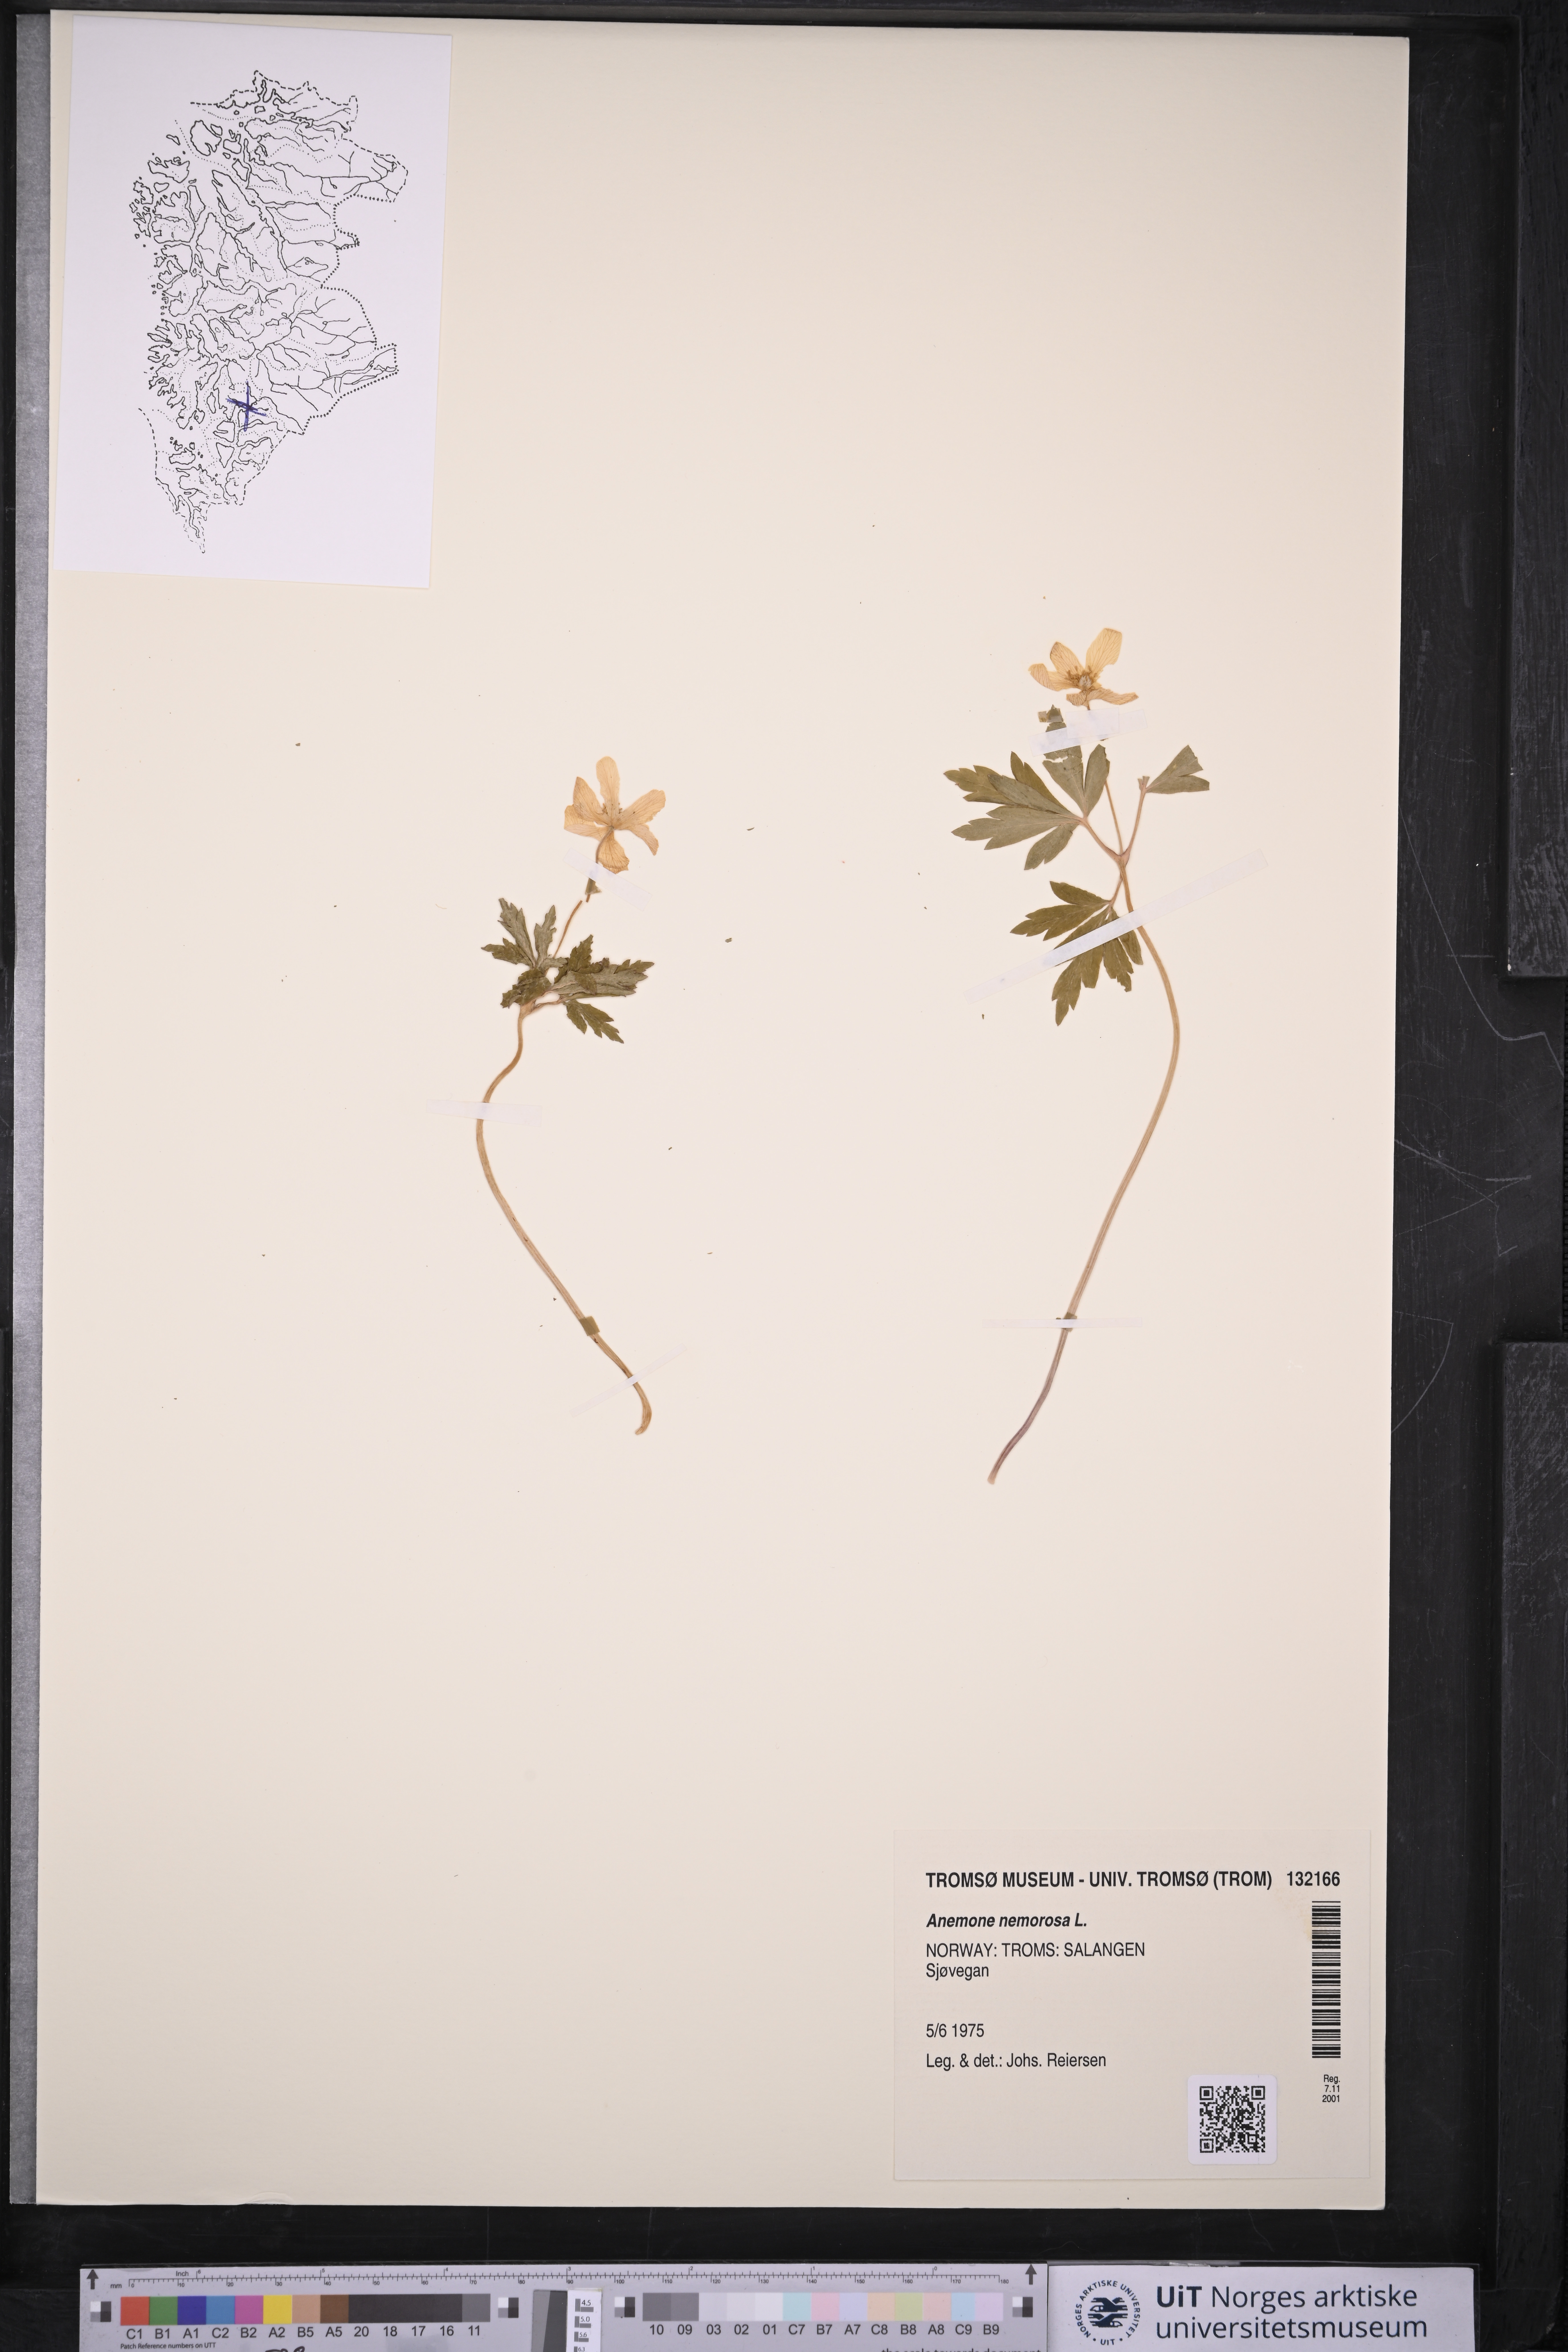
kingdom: Plantae
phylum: Tracheophyta
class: Magnoliopsida
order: Ranunculales
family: Ranunculaceae
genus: Anemone
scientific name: Anemone nemorosa
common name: Wood anemone
